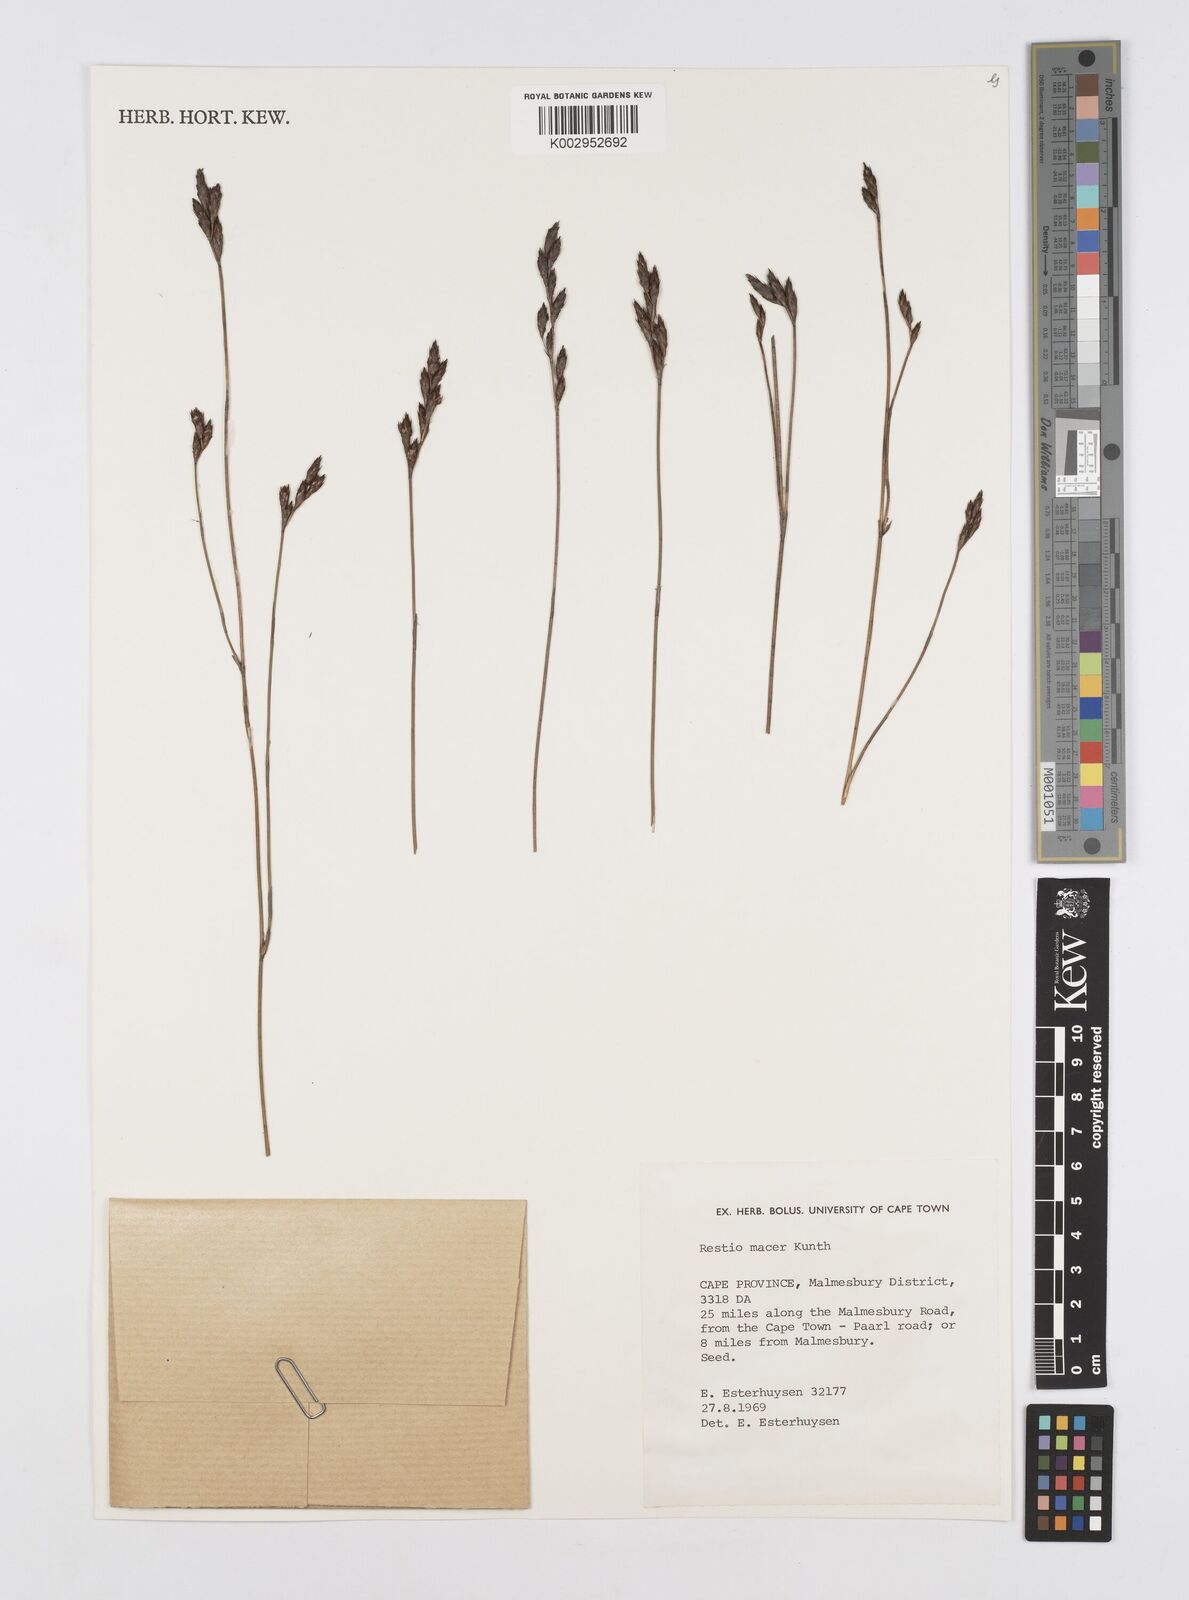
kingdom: Plantae
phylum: Tracheophyta
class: Liliopsida
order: Poales
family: Restionaceae
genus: Restio
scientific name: Restio macer
